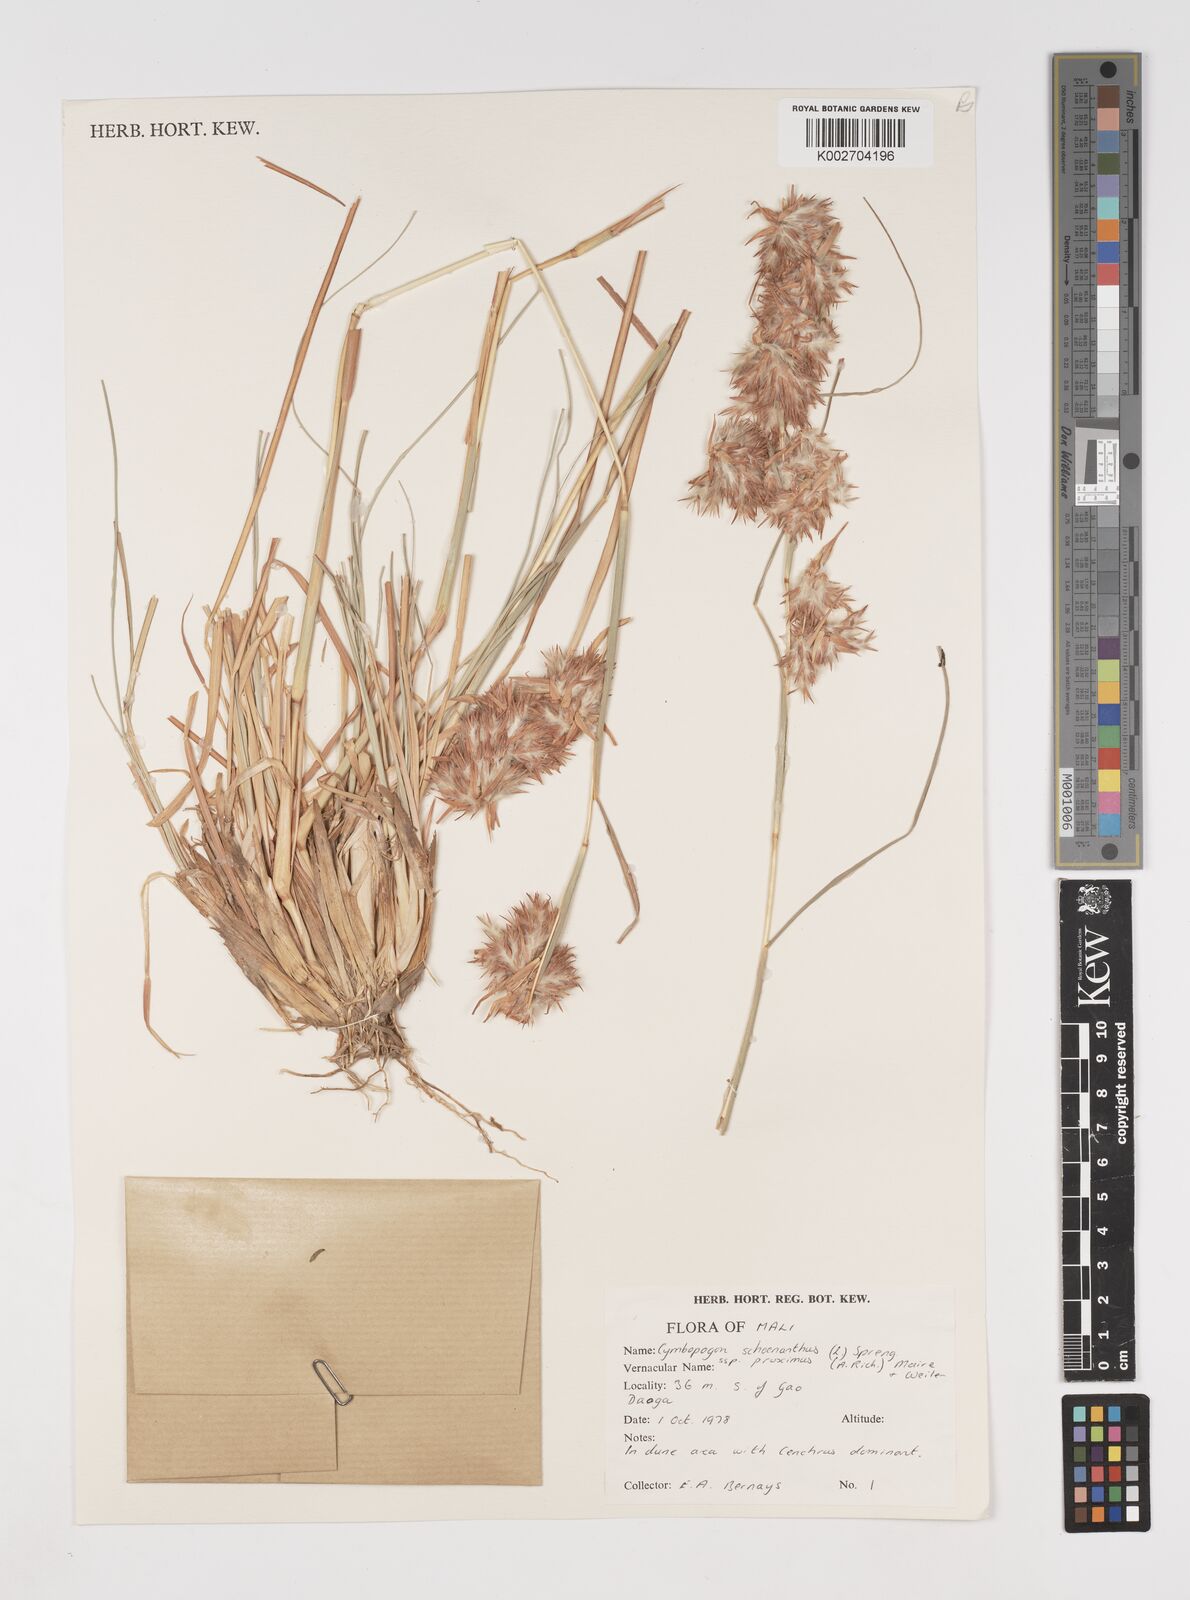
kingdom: Plantae
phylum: Tracheophyta
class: Liliopsida
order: Poales
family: Poaceae
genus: Cymbopogon
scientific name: Cymbopogon schoenanthus
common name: Geranium grass
